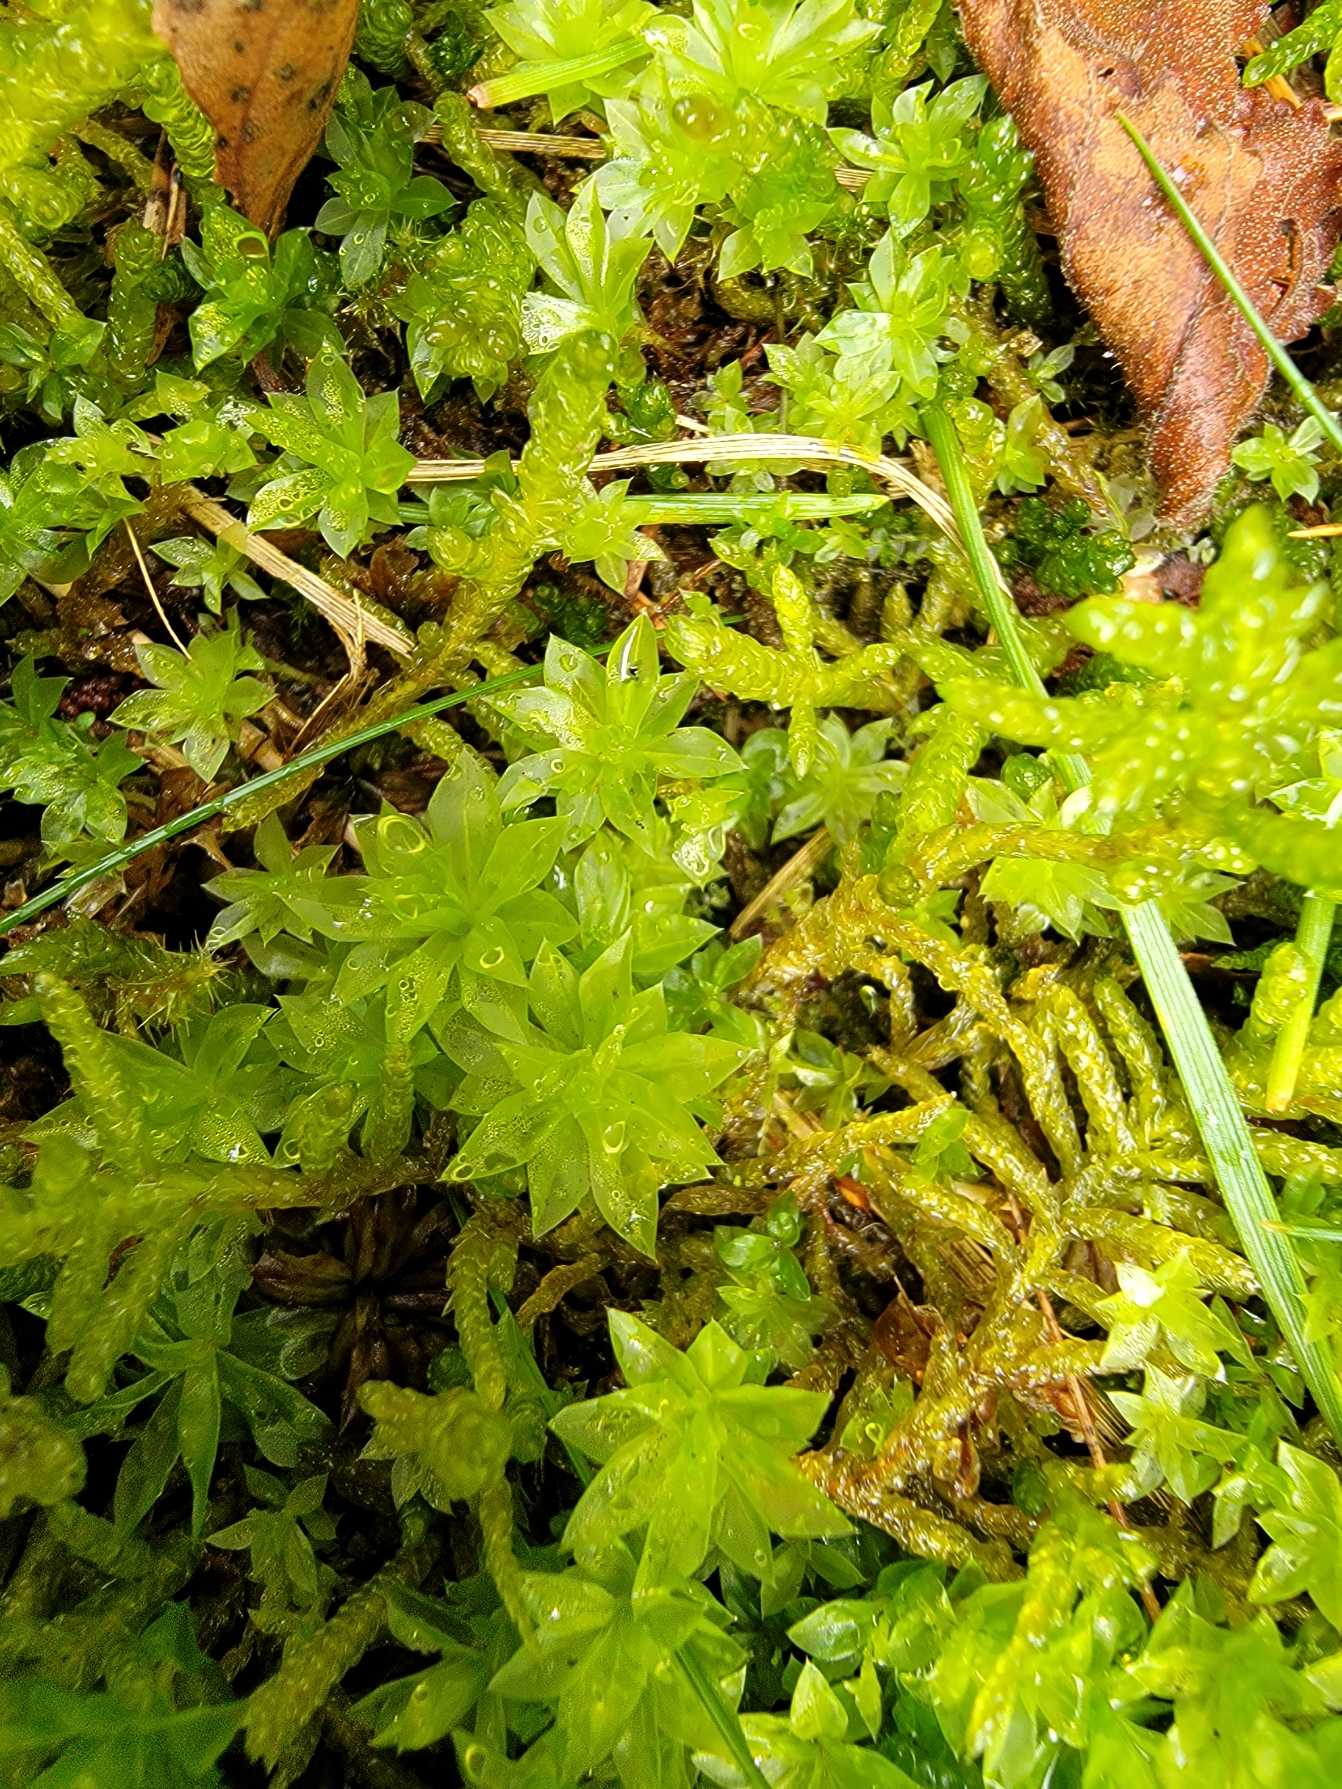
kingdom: Plantae
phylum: Bryophyta
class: Bryopsida
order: Bryales
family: Bryaceae
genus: Rhodobryum
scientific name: Rhodobryum roseum
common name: Stor rosetmos
